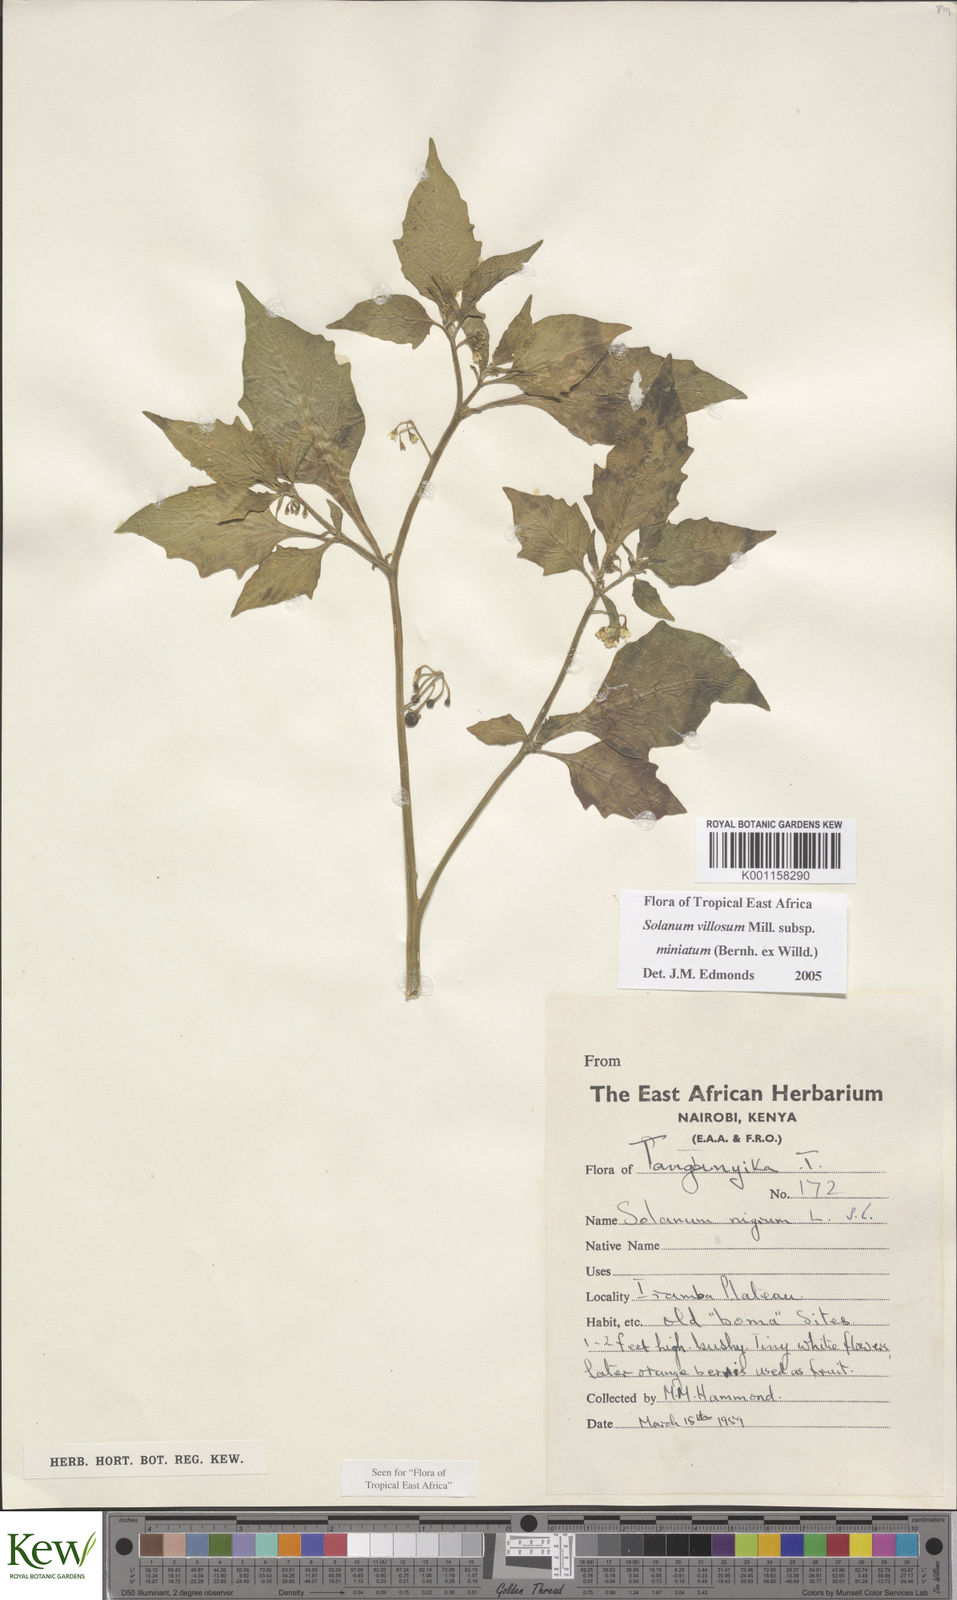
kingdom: Plantae
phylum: Tracheophyta
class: Magnoliopsida
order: Solanales
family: Solanaceae
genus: Solanum
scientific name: Solanum villosum
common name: Red nightshade
